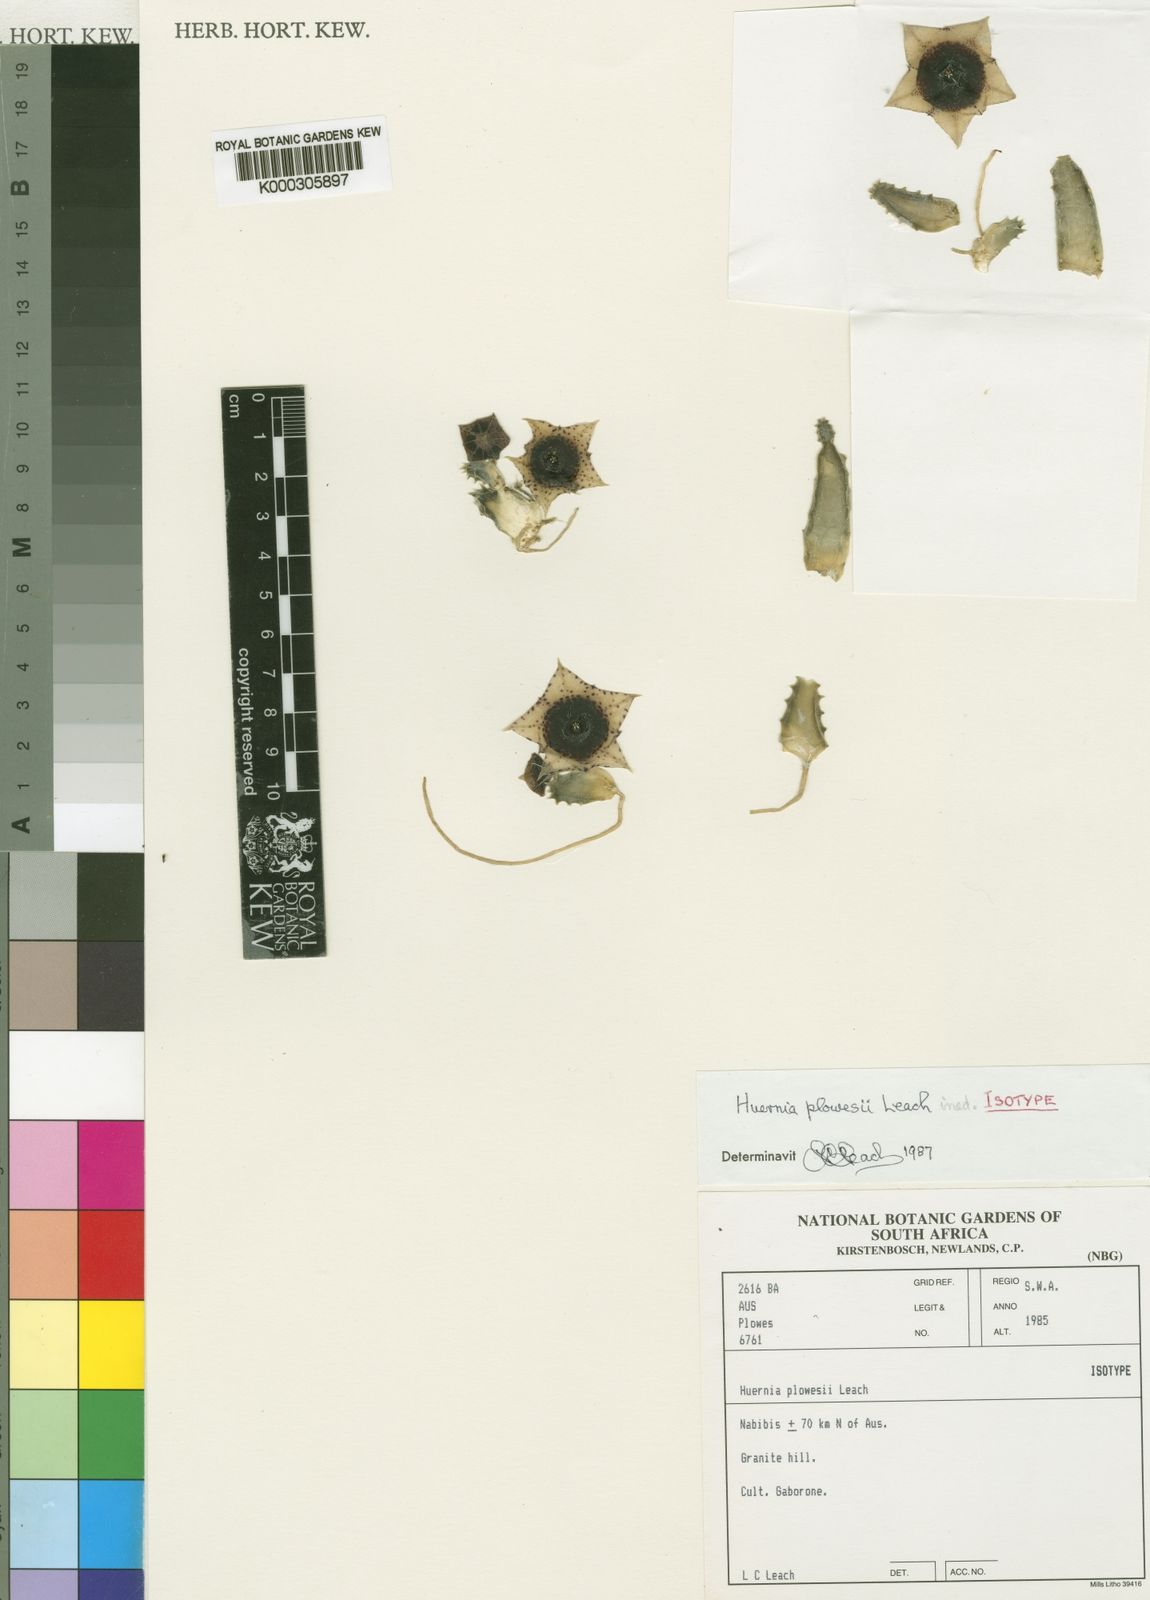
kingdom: Plantae
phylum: Tracheophyta
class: Magnoliopsida
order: Gentianales
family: Apocynaceae
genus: Ceropegia
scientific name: Ceropegia plowesii
